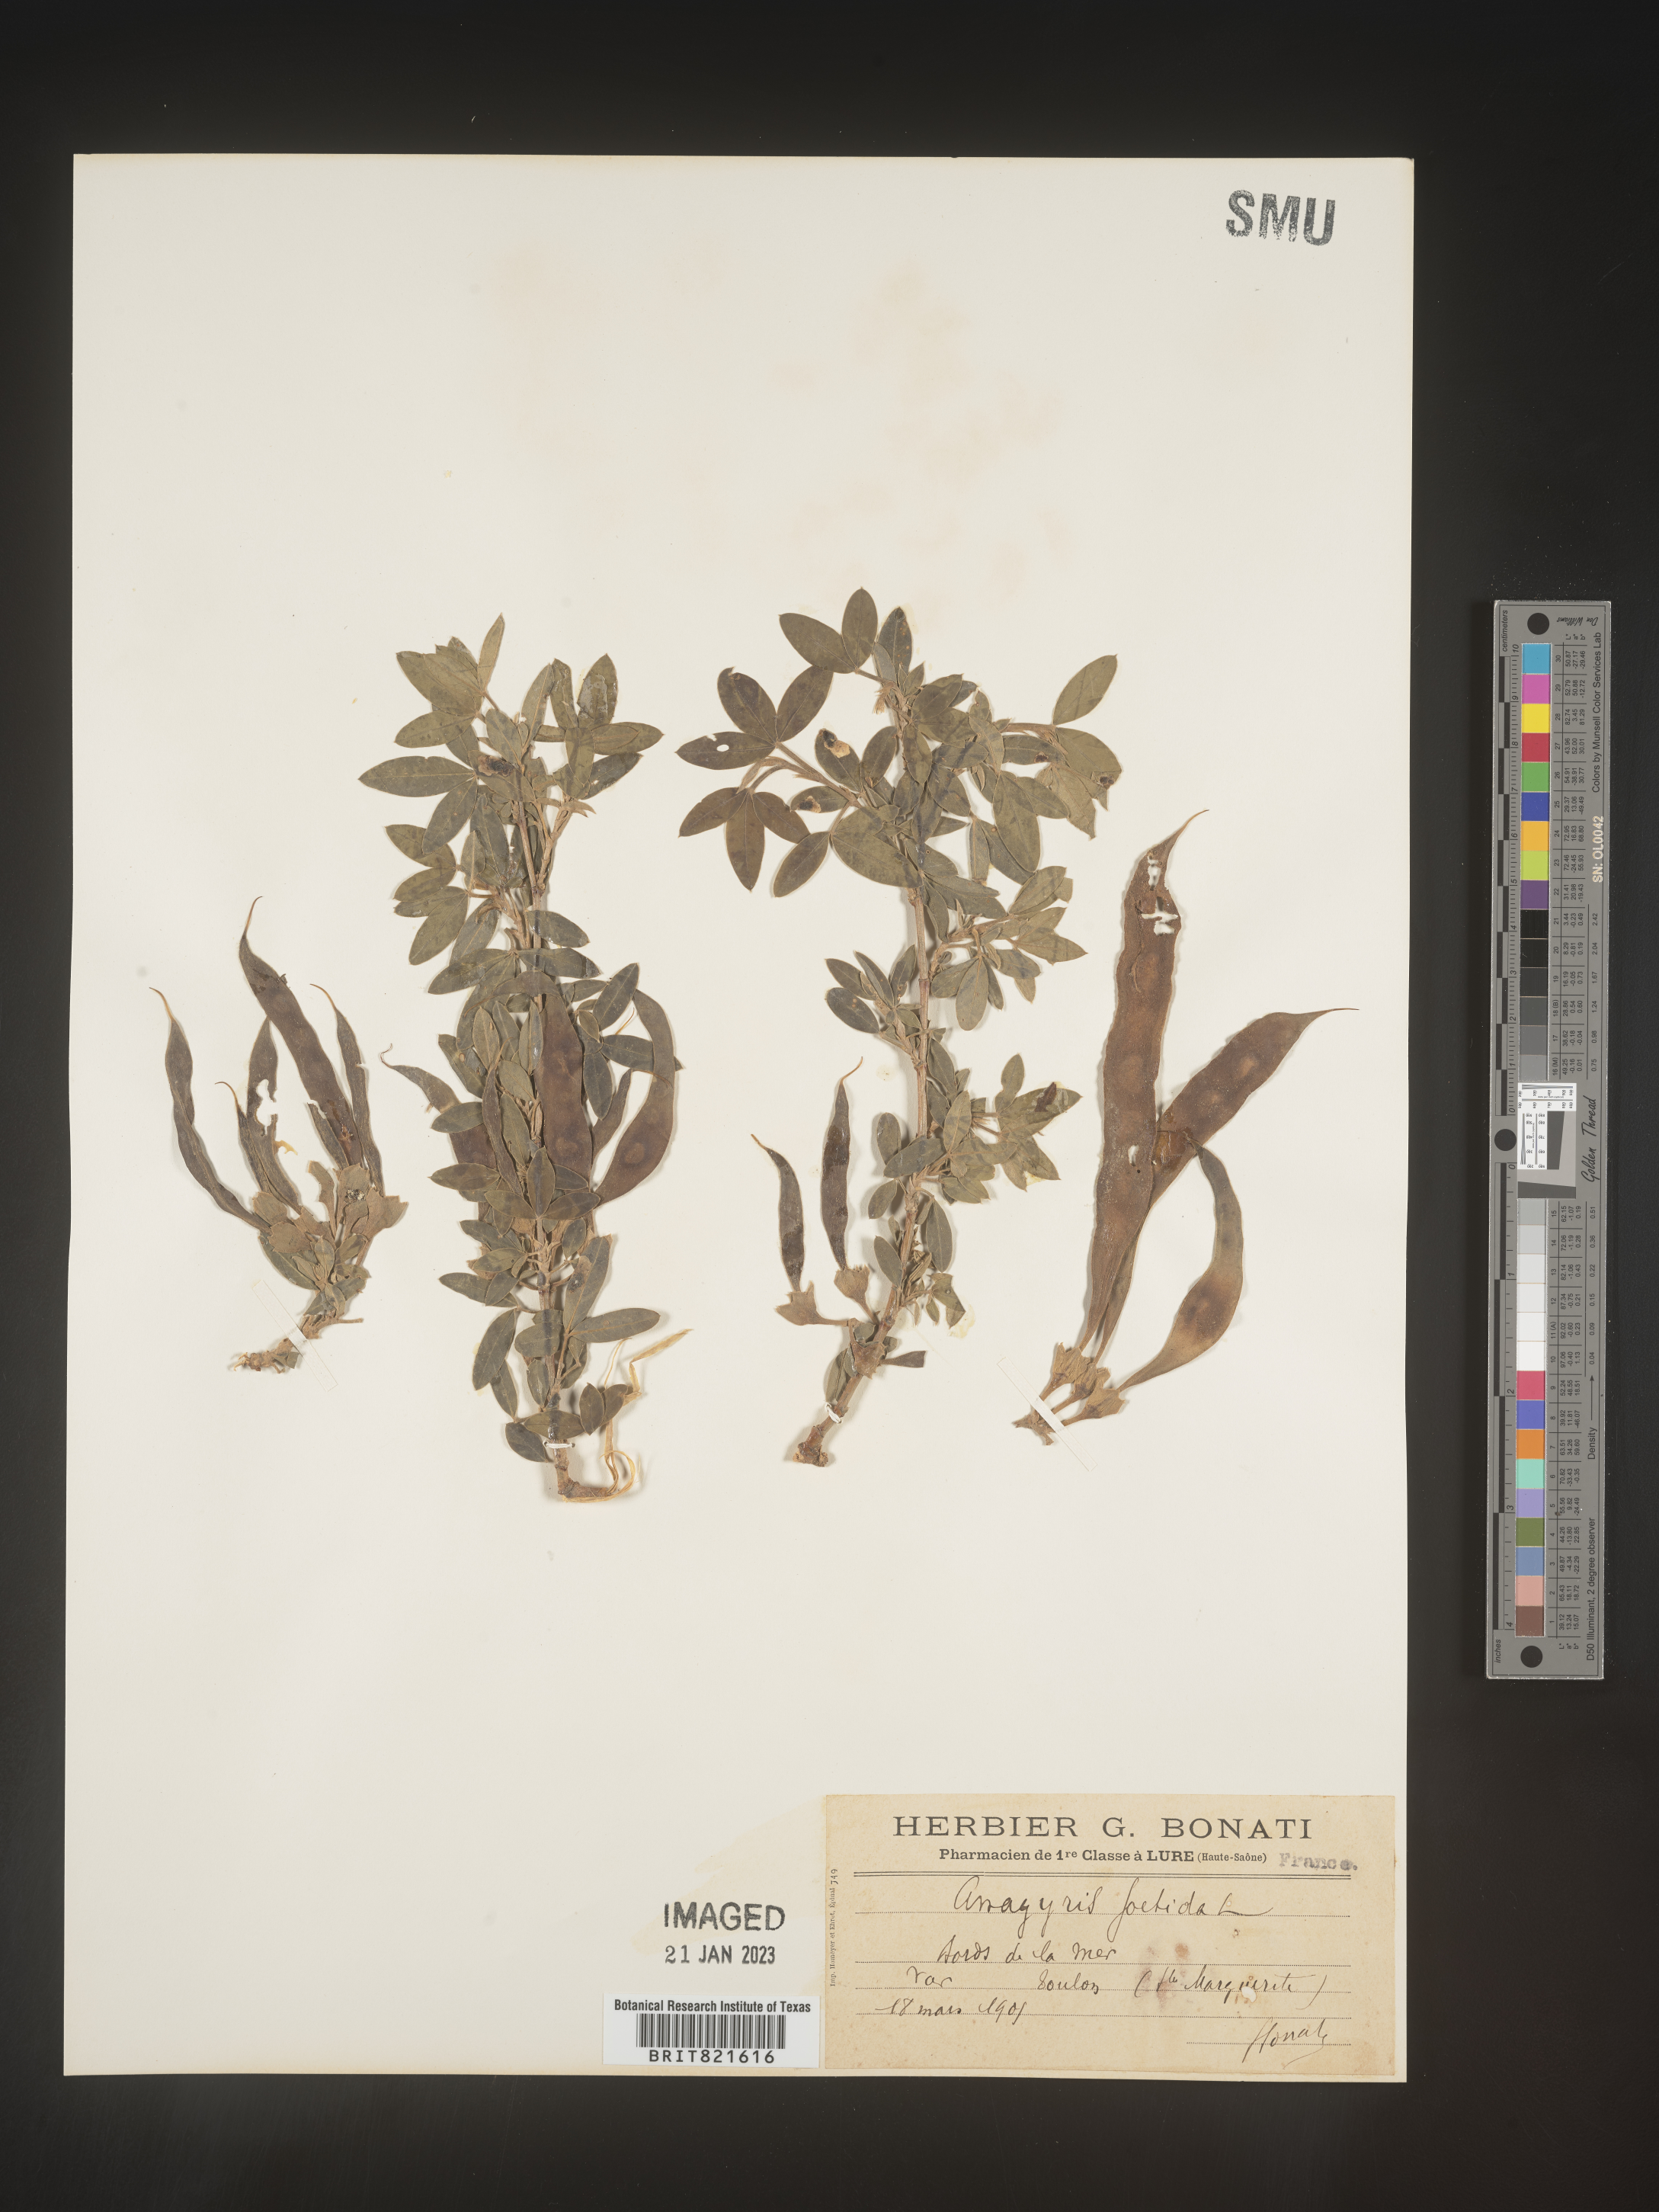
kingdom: Plantae
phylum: Tracheophyta
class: Magnoliopsida
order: Fabales
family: Fabaceae
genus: Laburnum
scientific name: Laburnum
